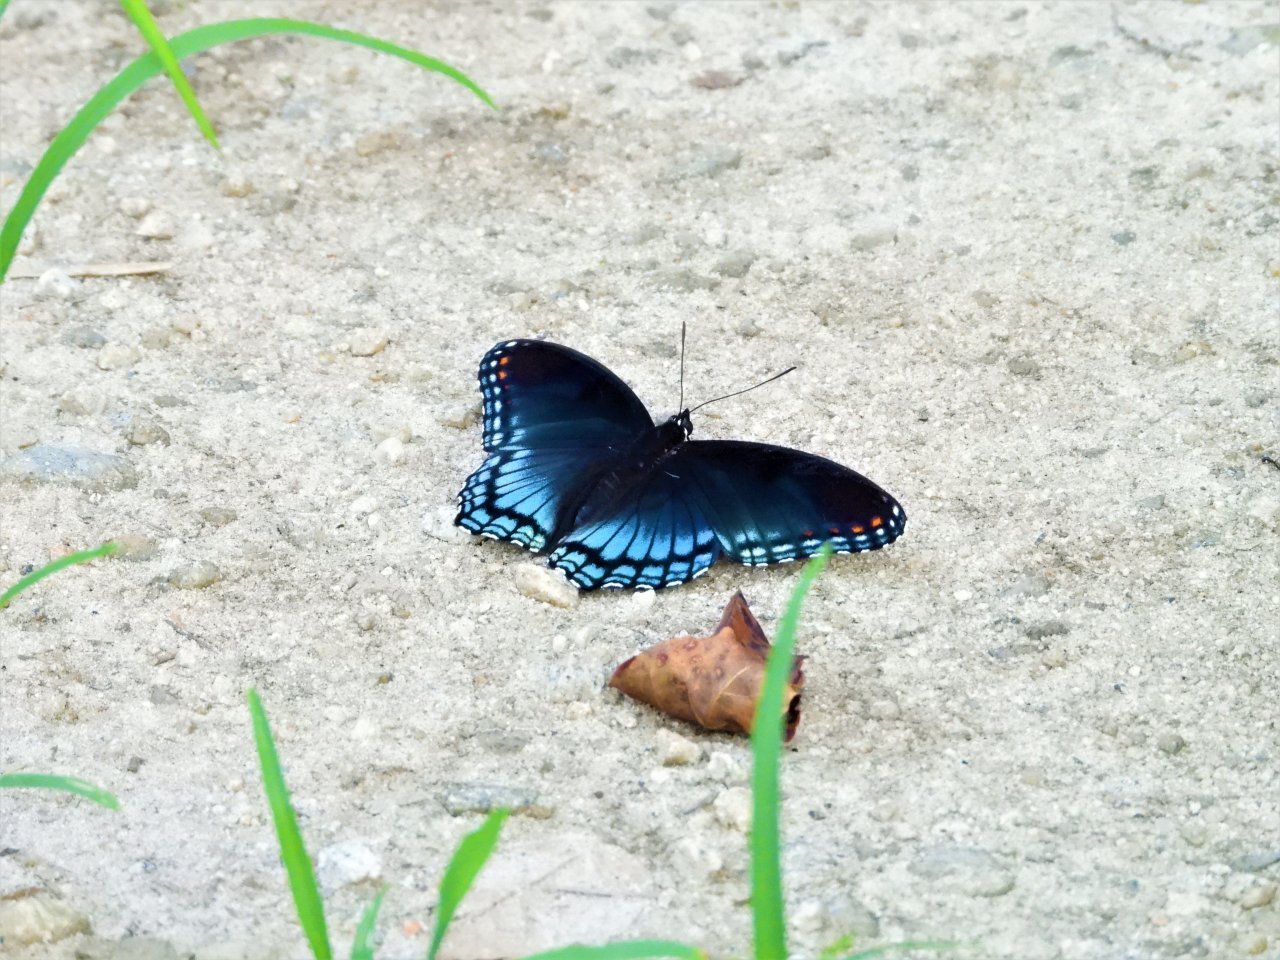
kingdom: Animalia
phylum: Arthropoda
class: Insecta
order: Lepidoptera
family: Nymphalidae
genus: Limenitis
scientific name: Limenitis arthemis
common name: Red-spotted Admiral
